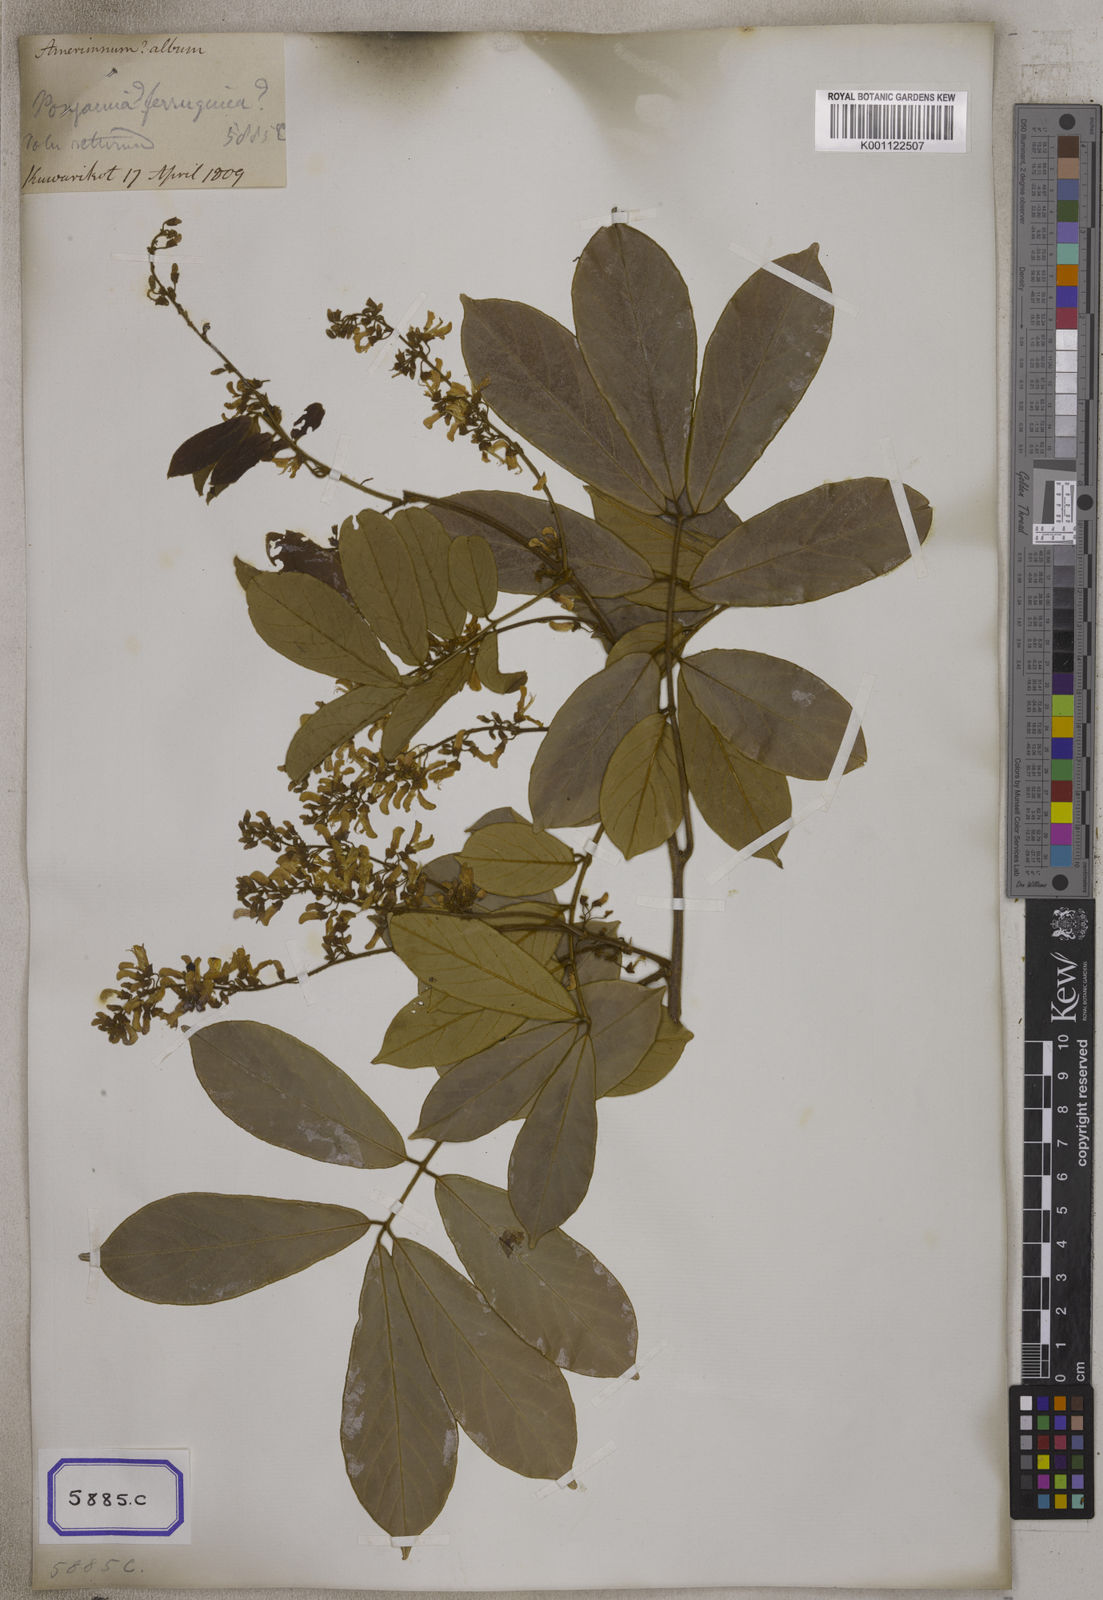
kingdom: Plantae
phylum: Tracheophyta
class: Magnoliopsida
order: Fabales
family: Fabaceae
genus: Derris
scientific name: Derris ferruginea
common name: Indian tubaroot
